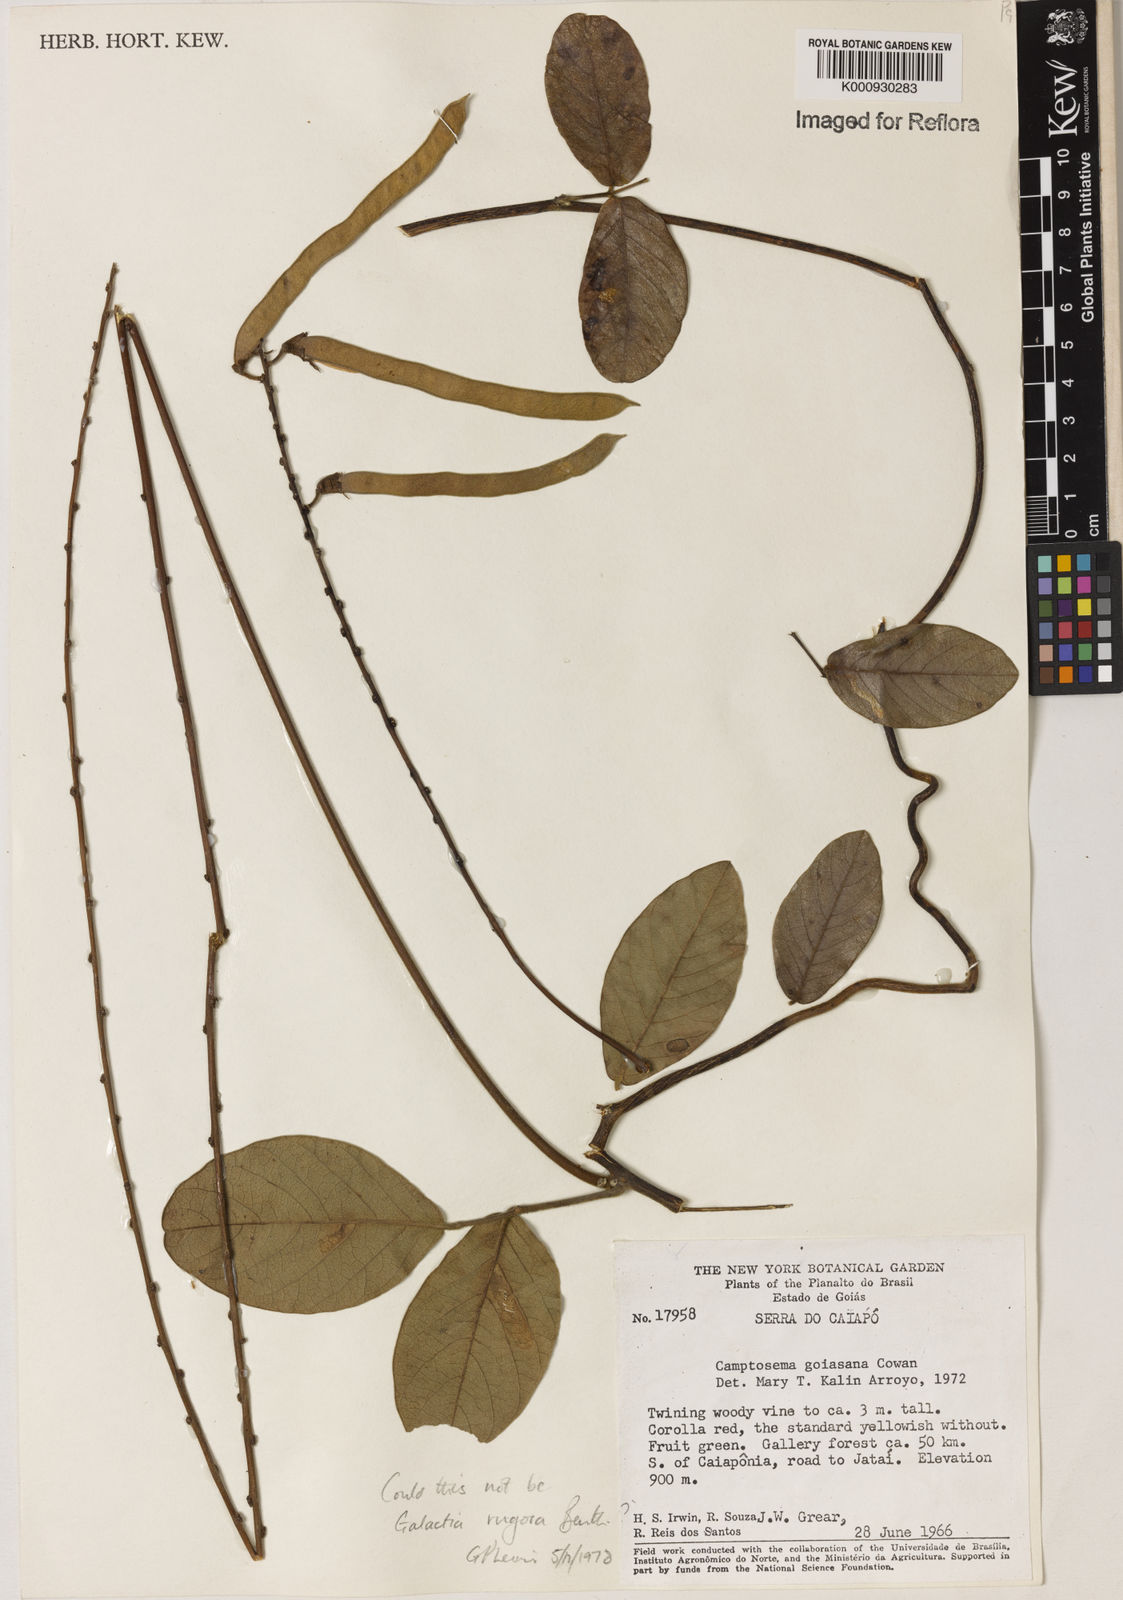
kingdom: Plantae
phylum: Tracheophyta
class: Magnoliopsida
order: Fabales
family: Fabaceae
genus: Camptosema
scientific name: Camptosema goiasana
